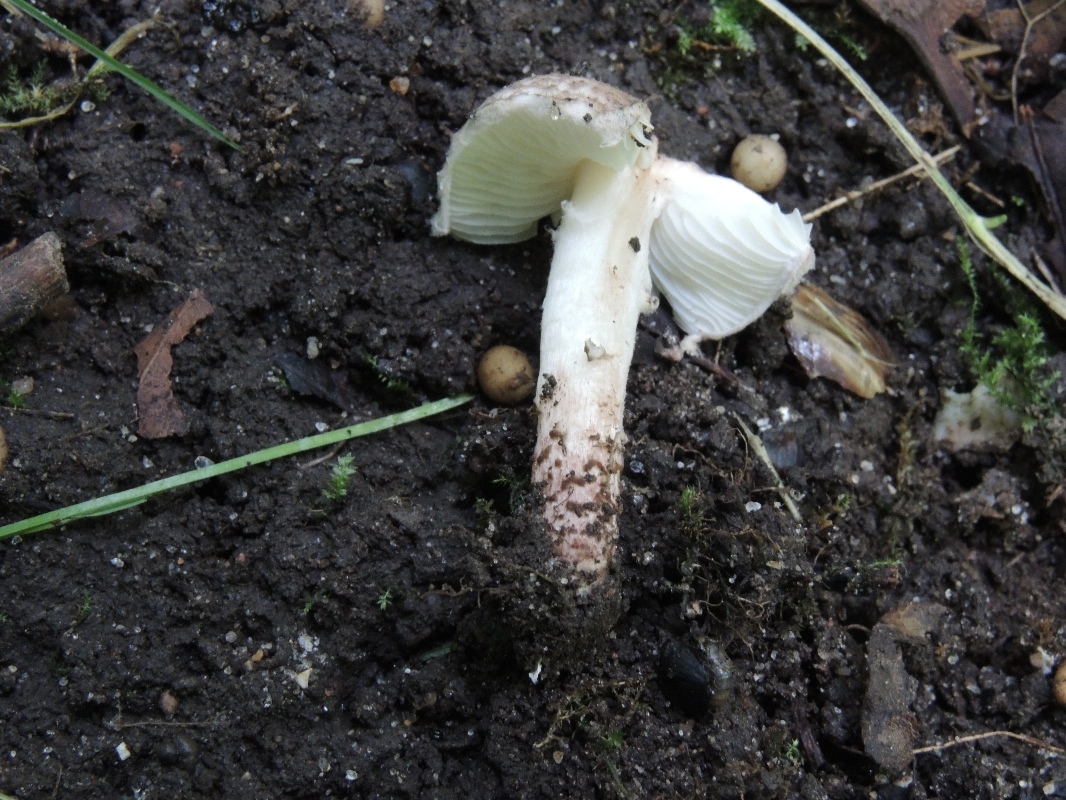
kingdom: Fungi
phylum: Basidiomycota
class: Agaricomycetes
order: Agaricales
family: Agaricaceae
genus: Lepiota
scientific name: Lepiota brunneoincarnata
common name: brunrød parasolhat
